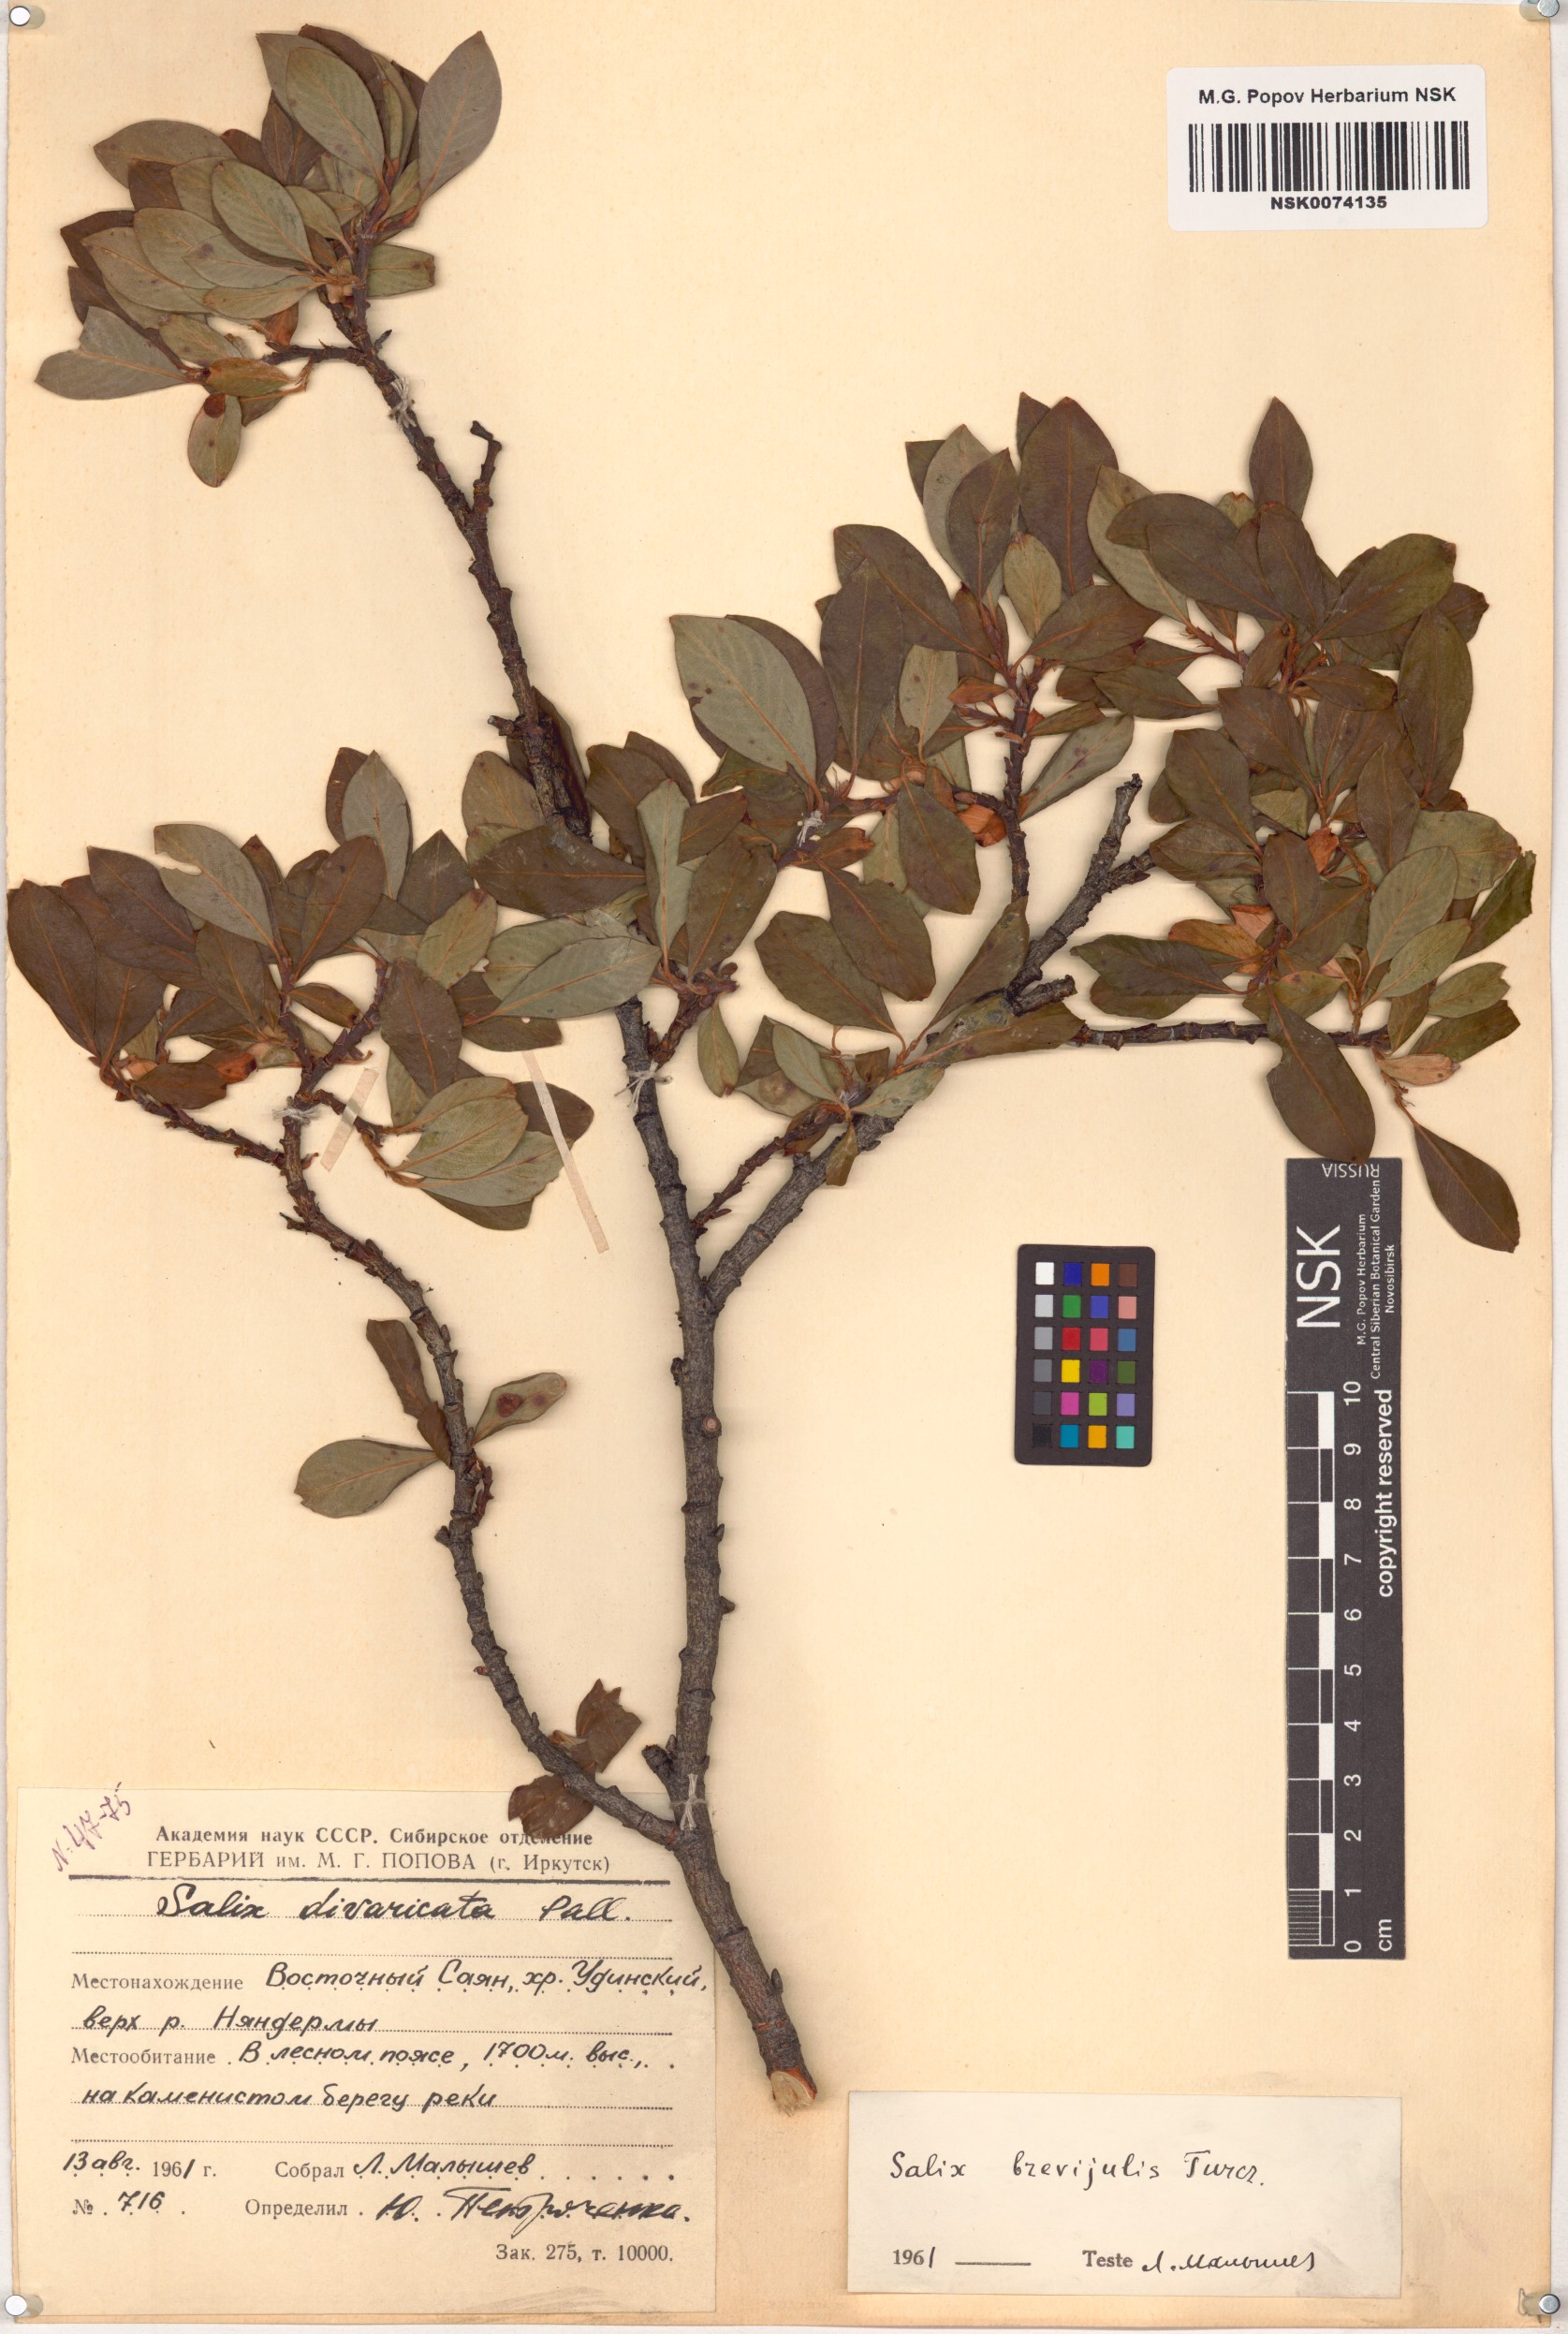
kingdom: Plantae
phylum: Tracheophyta
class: Magnoliopsida
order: Malpighiales
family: Salicaceae
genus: Salix
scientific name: Salix divaricata
